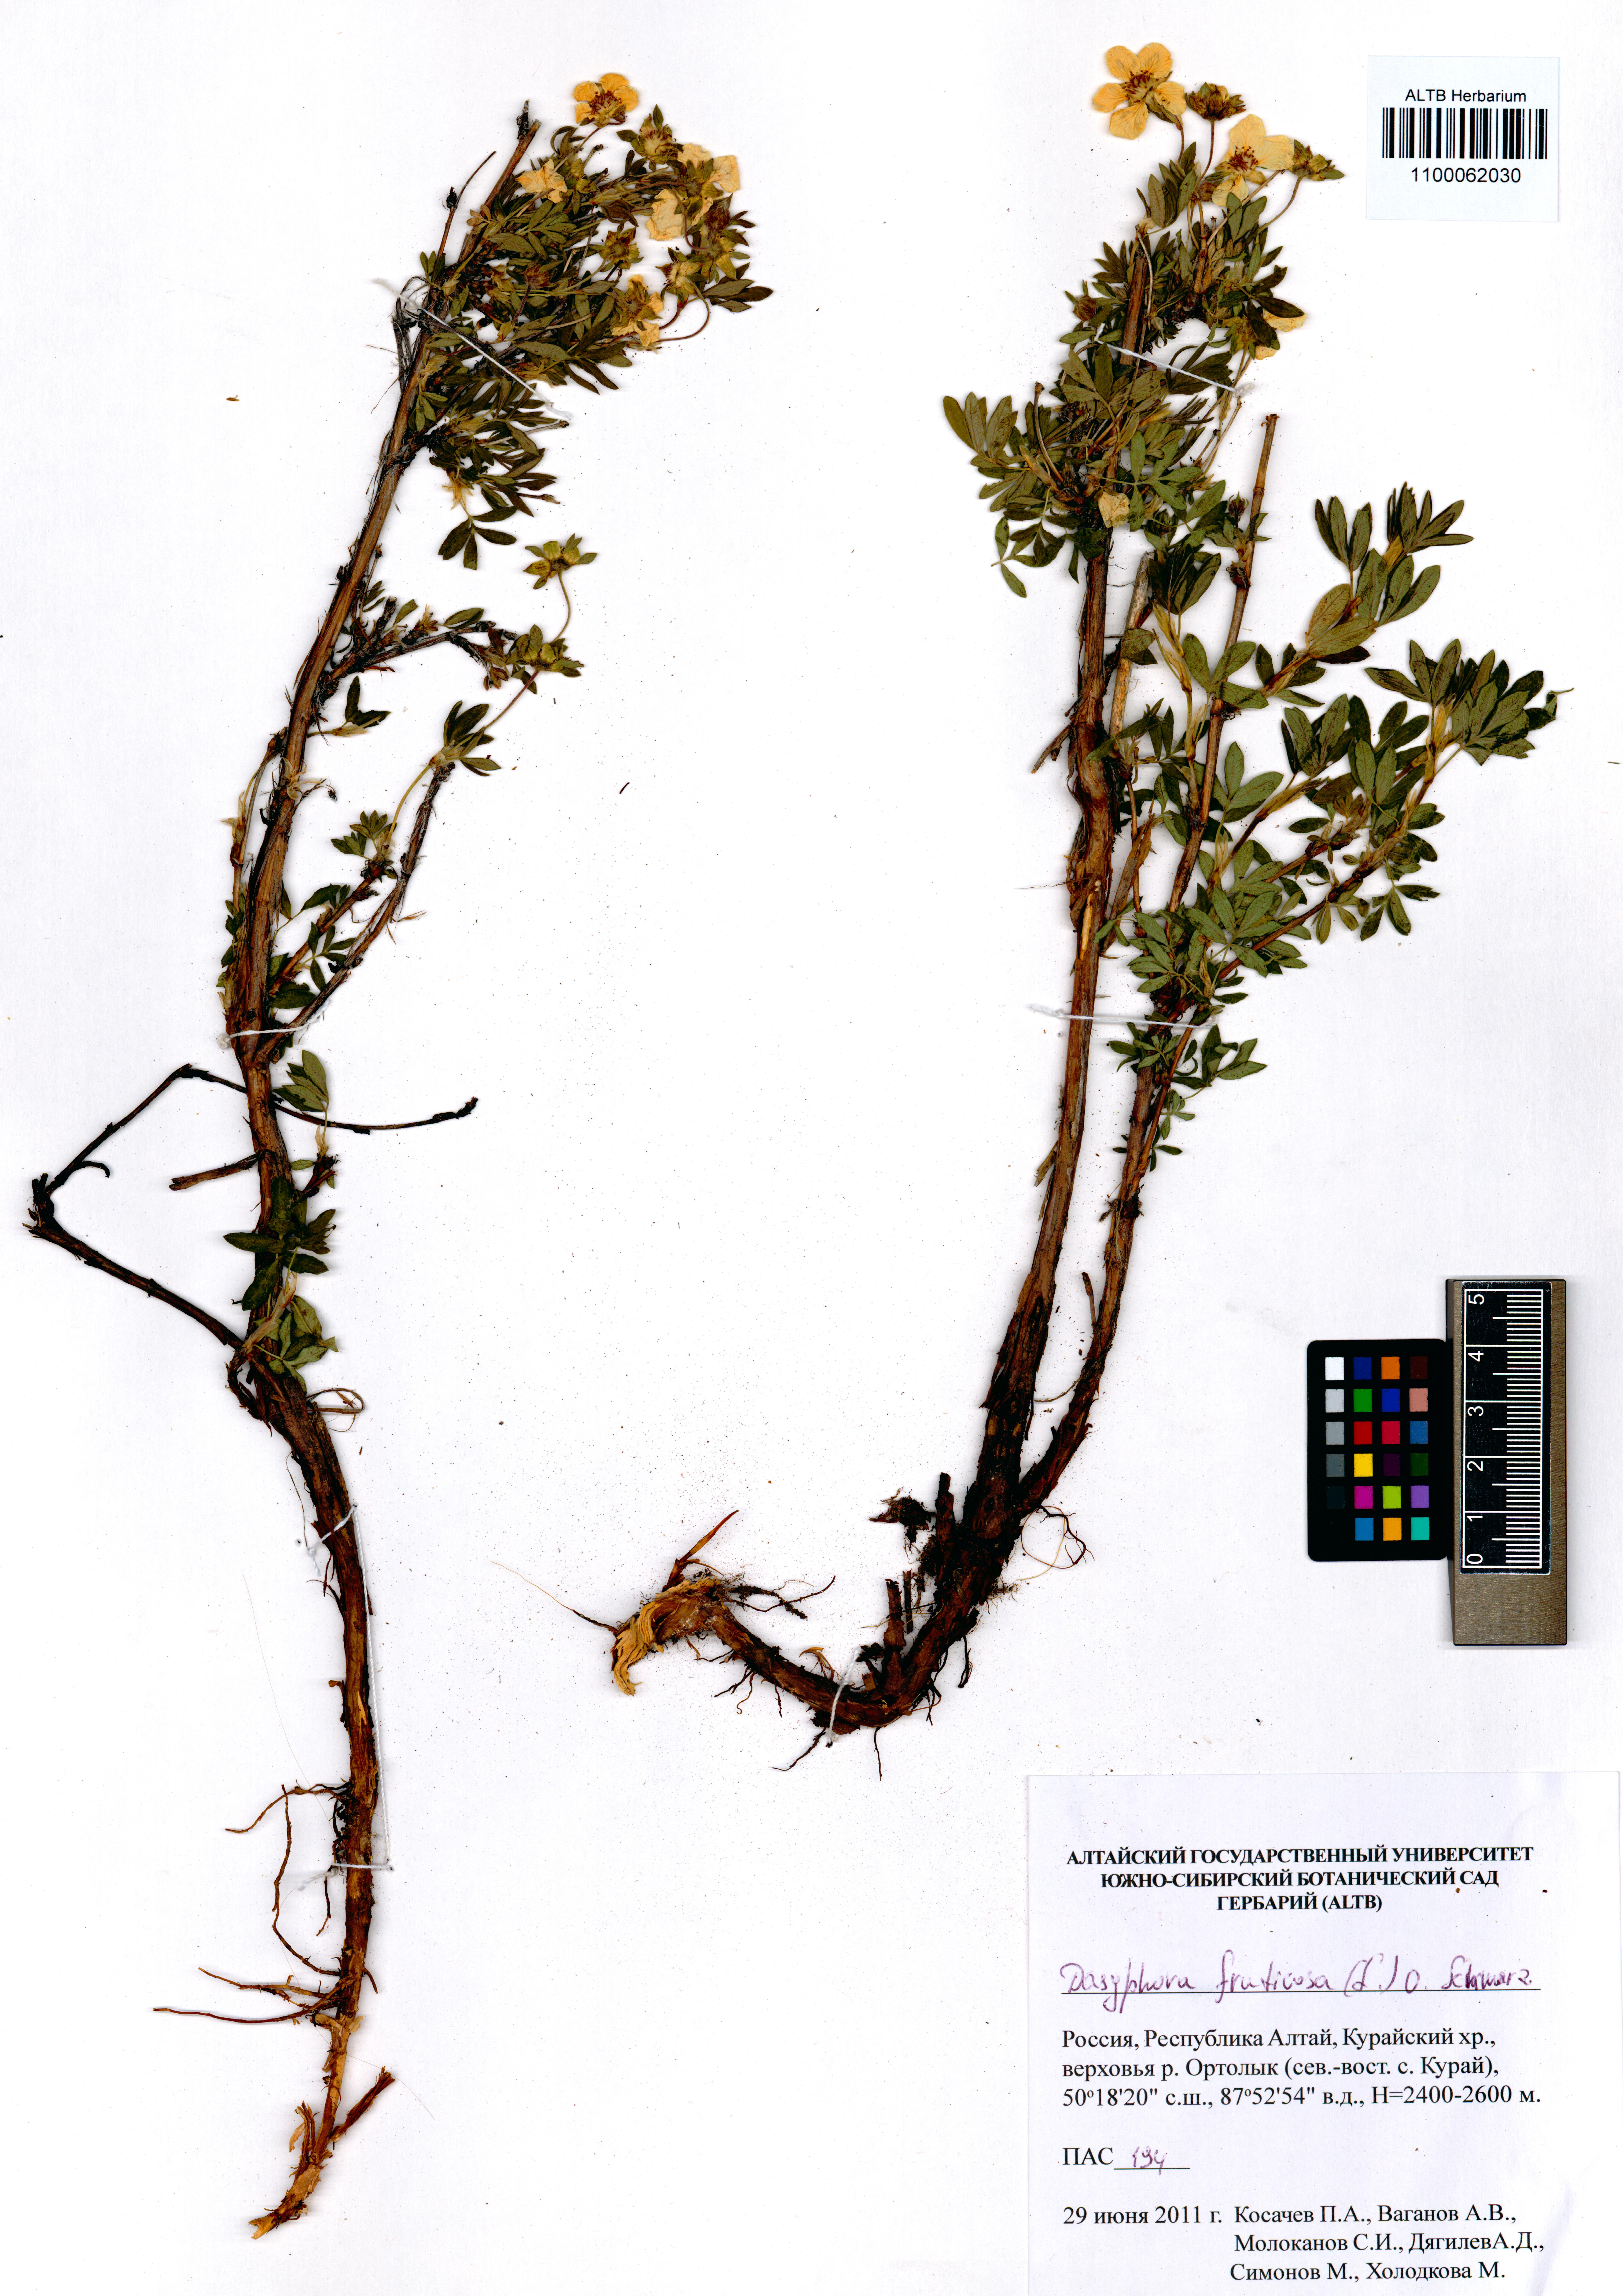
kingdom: Plantae
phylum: Tracheophyta
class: Magnoliopsida
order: Rosales
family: Rosaceae
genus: Dasiphora
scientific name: Dasiphora fruticosa
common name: Shrubby cinquefoil
